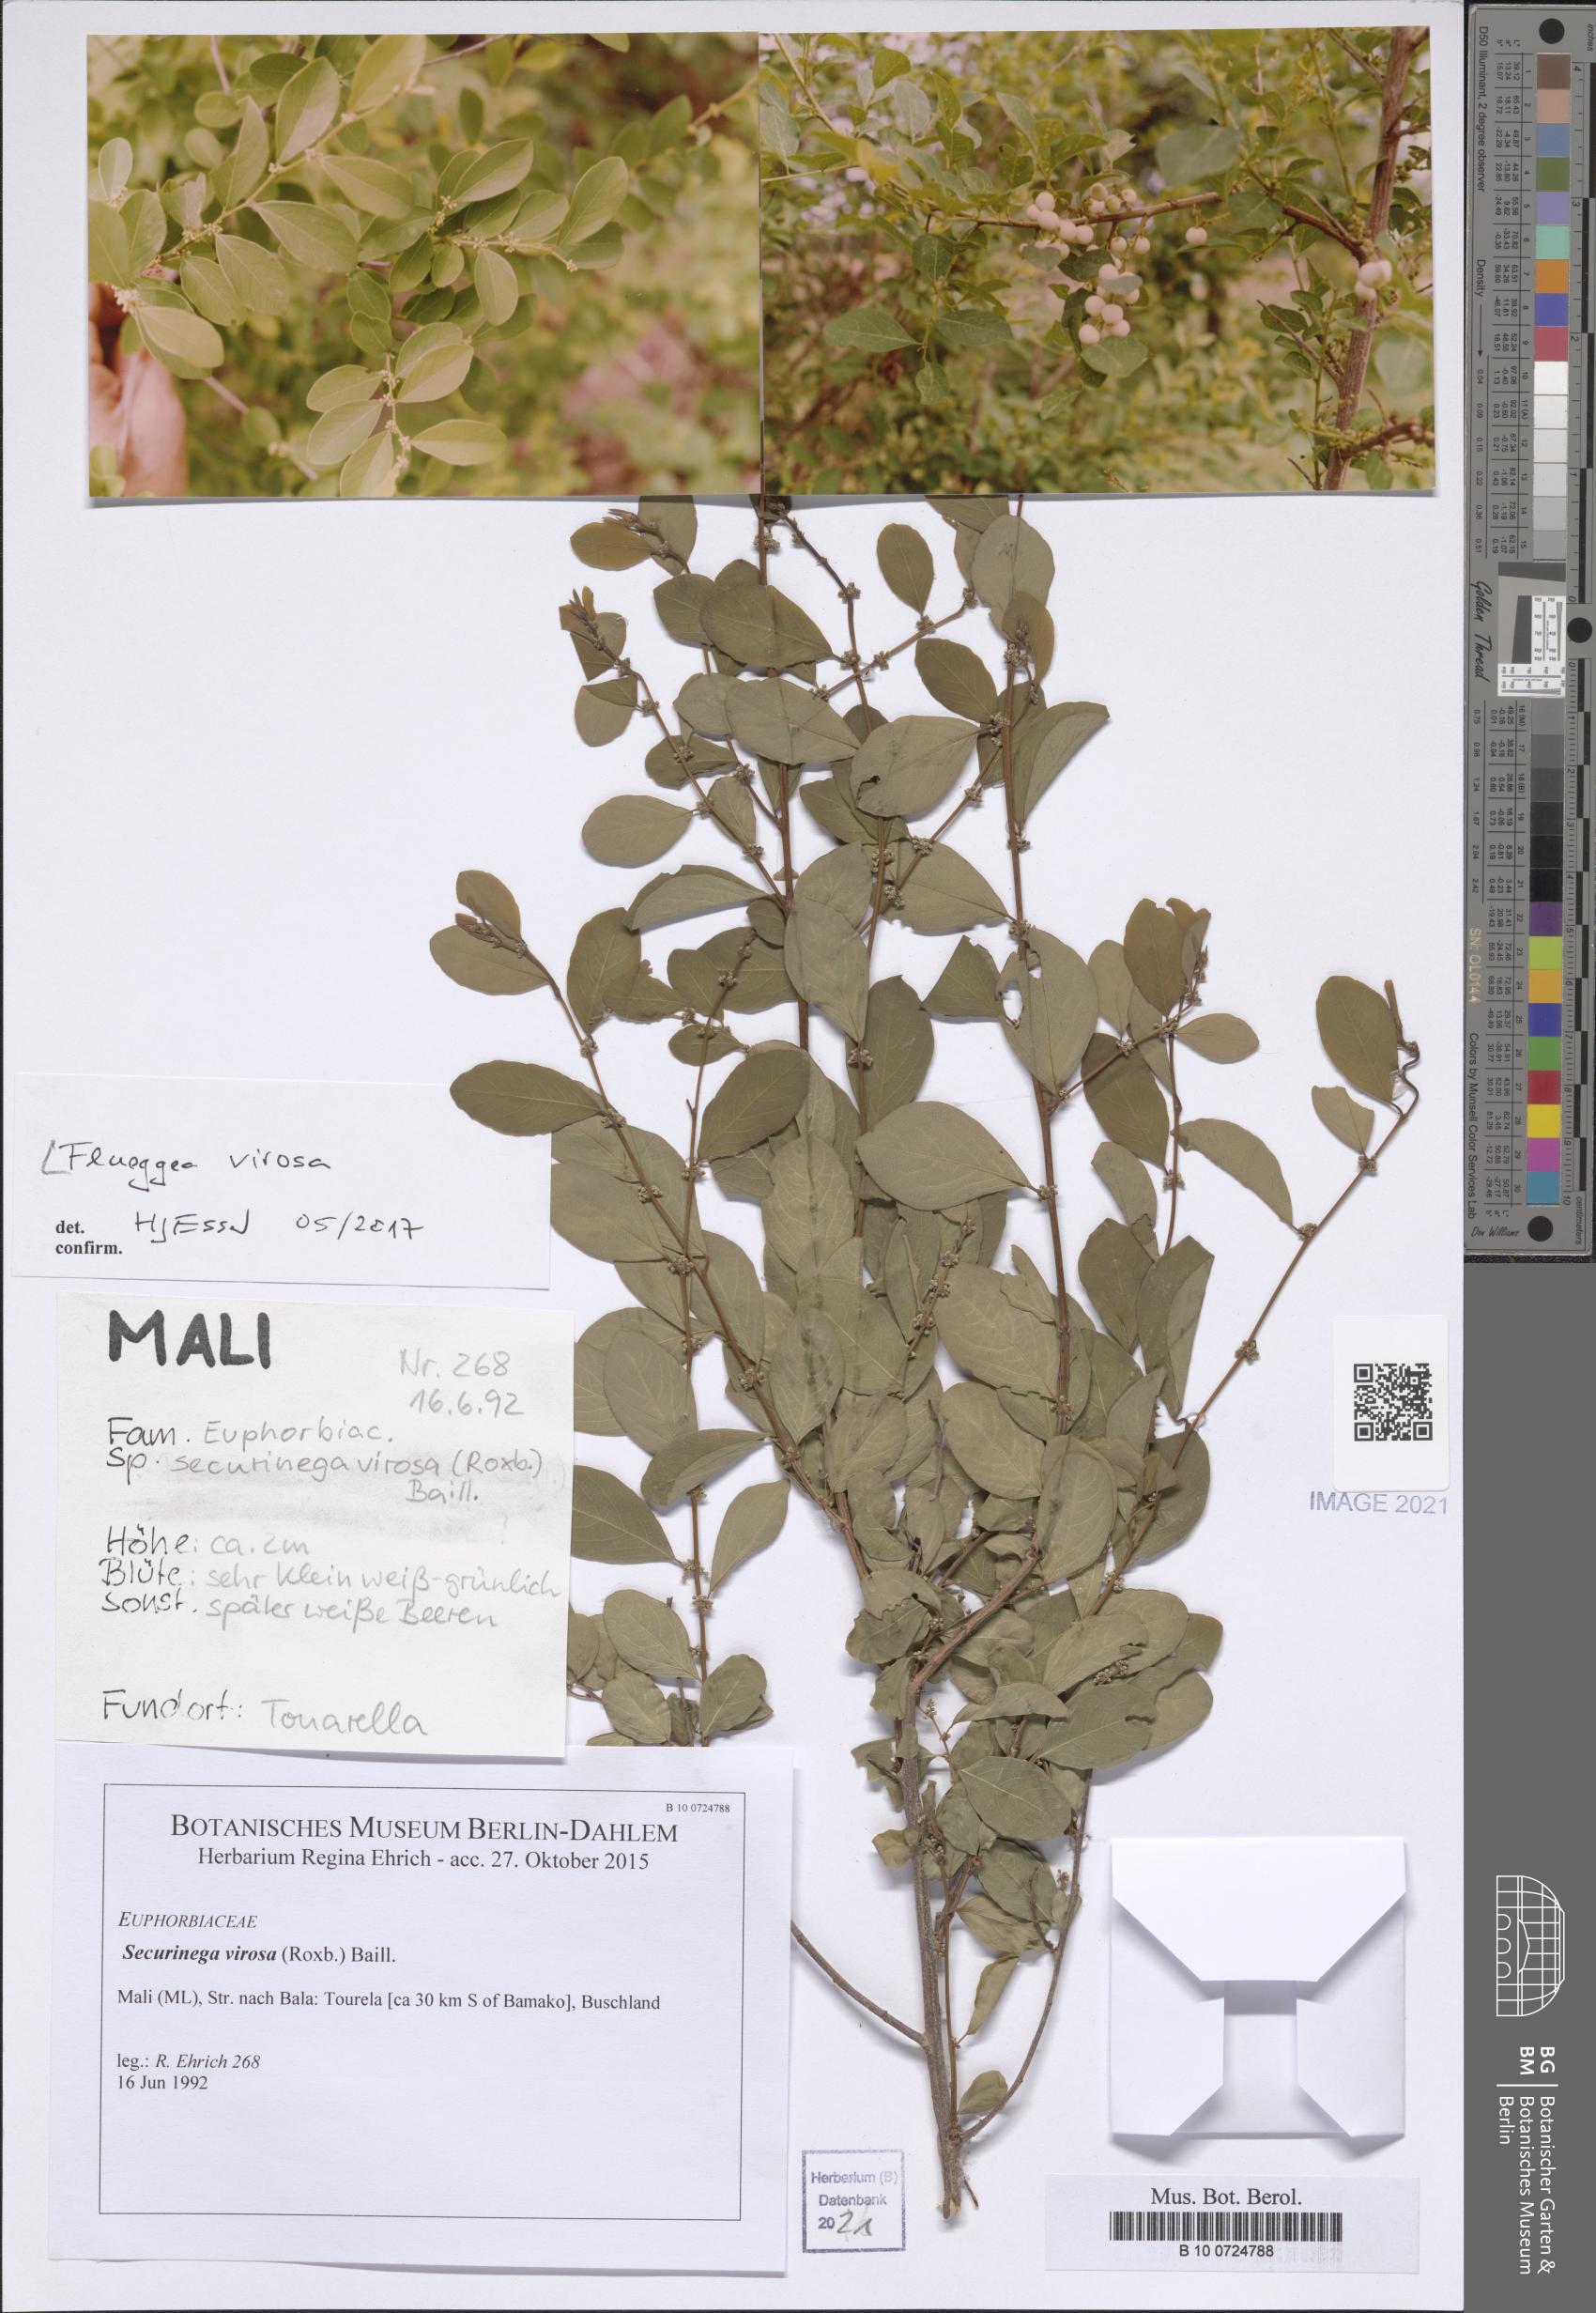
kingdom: Plantae
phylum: Tracheophyta
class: Magnoliopsida
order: Malpighiales
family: Phyllanthaceae
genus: Flueggea
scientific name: Flueggea virosa
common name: Common bushweed
